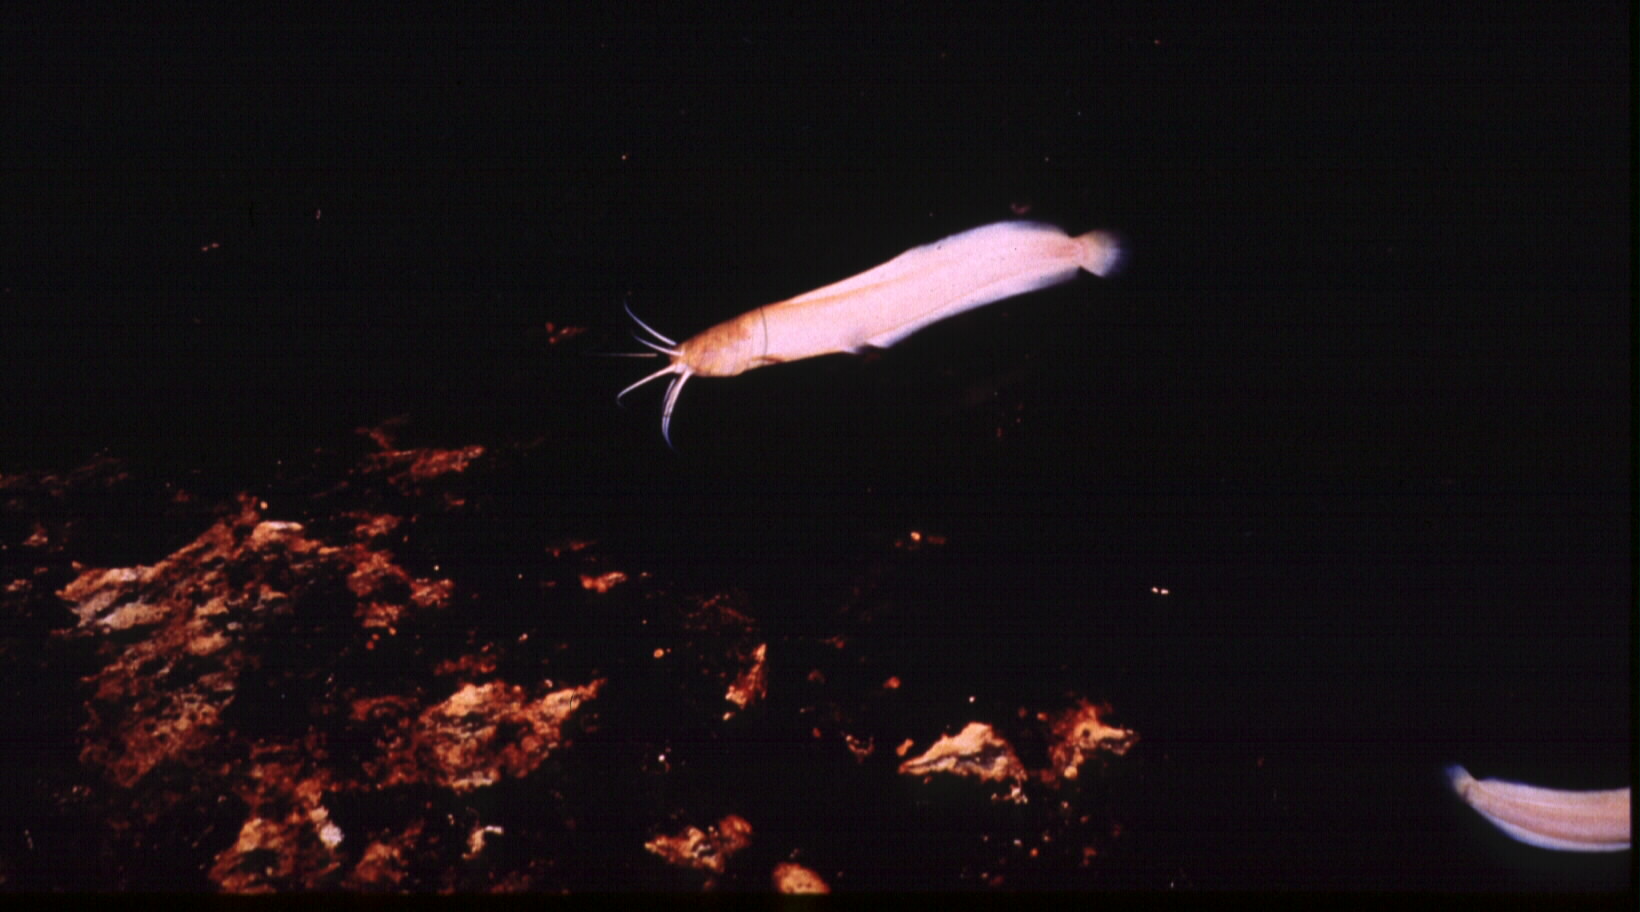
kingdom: Animalia
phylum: Chordata
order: Siluriformes
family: Clariidae
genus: Clarias
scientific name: Clarias cavernicola
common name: Cave catfish
